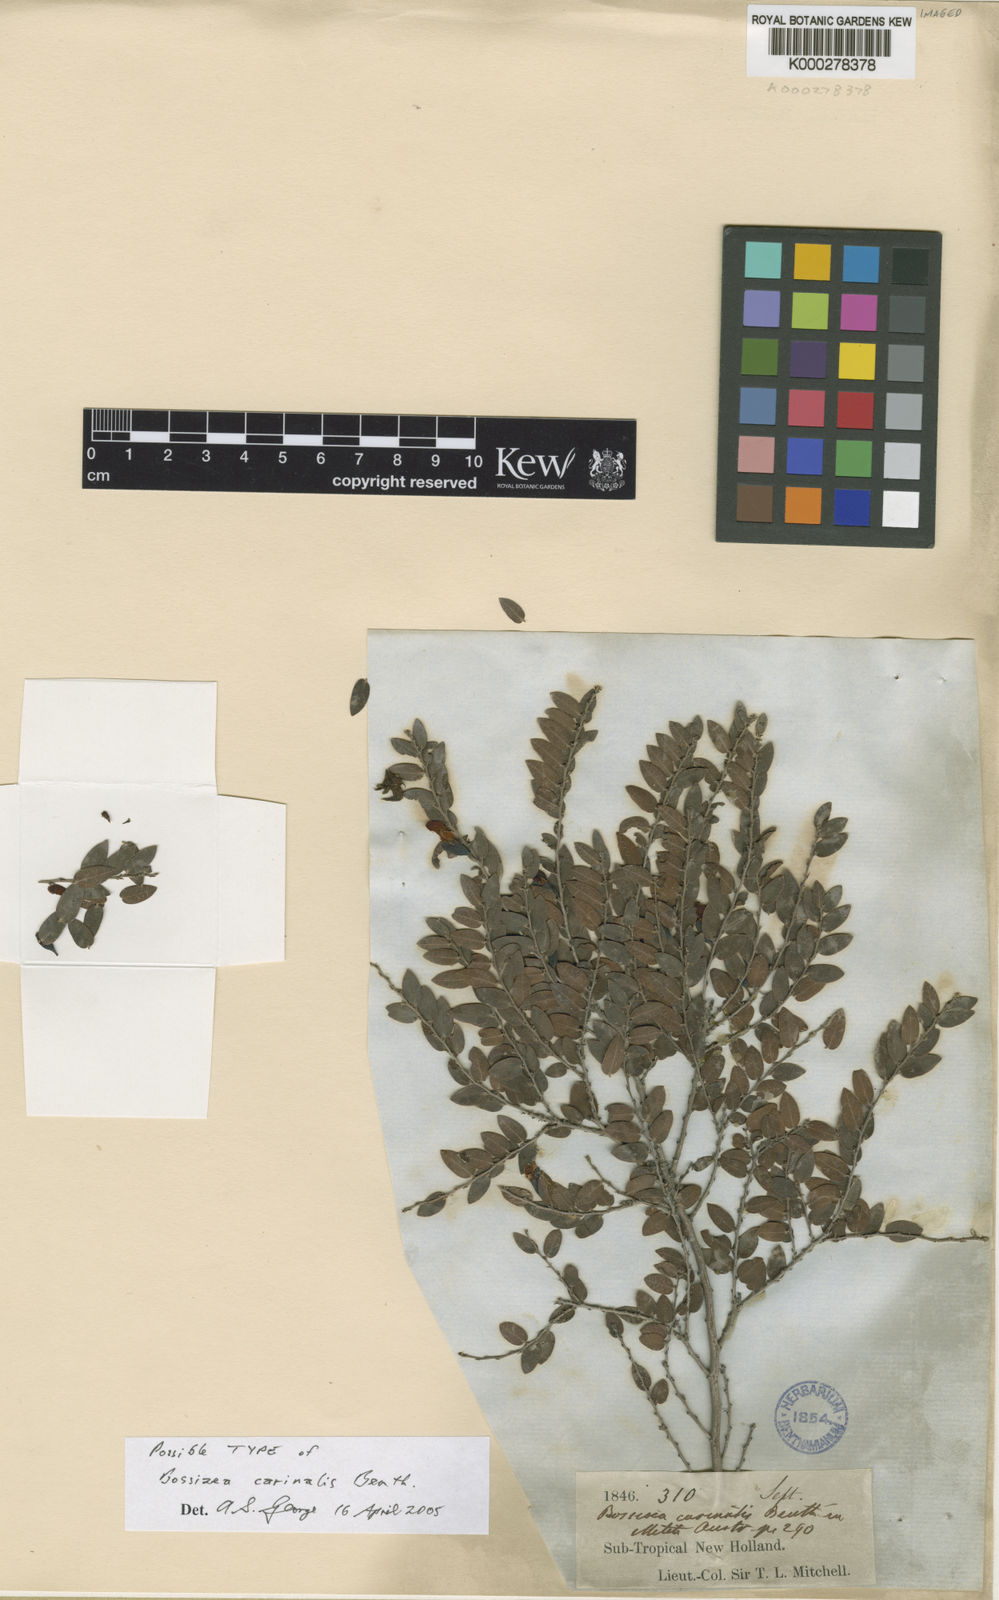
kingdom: Plantae
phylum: Tracheophyta
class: Magnoliopsida
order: Fabales
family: Fabaceae
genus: Bossiaea
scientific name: Bossiaea carinalis
